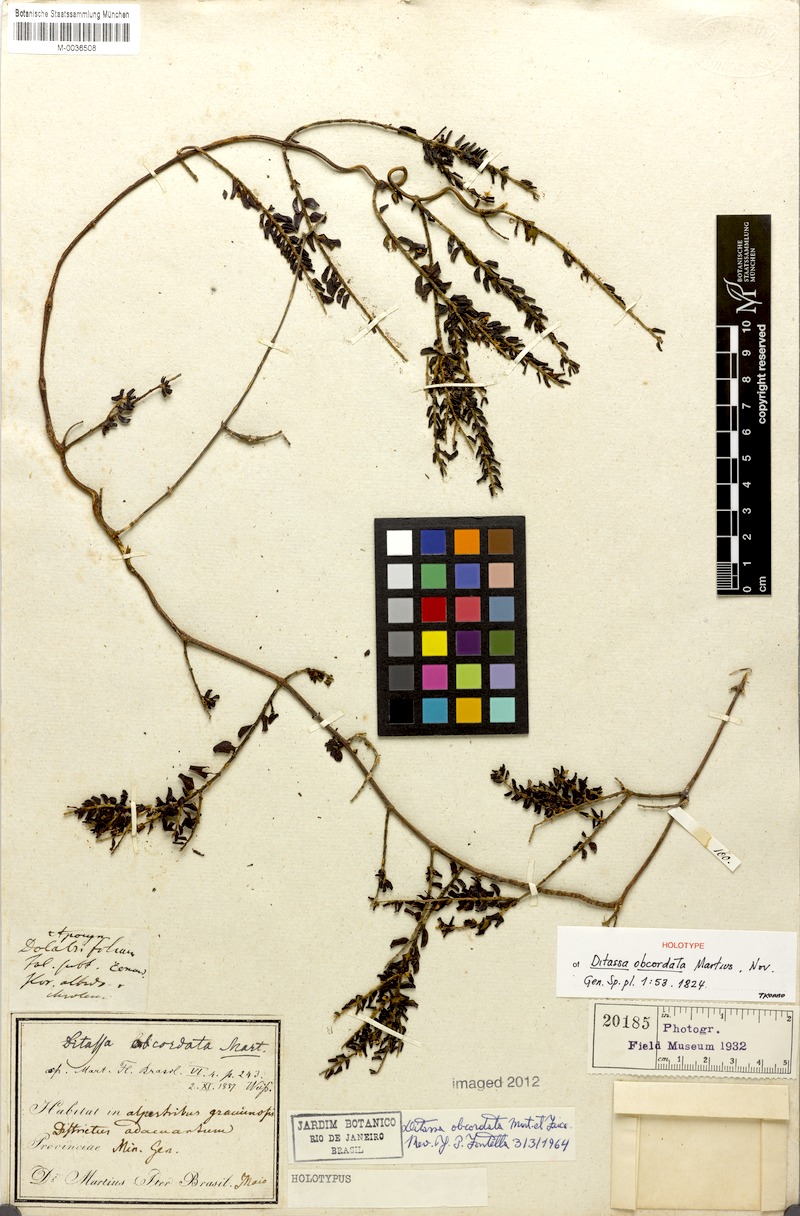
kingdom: Plantae
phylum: Tracheophyta
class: Magnoliopsida
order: Gentianales
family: Apocynaceae
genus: Ditassa
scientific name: Ditassa obcordata
